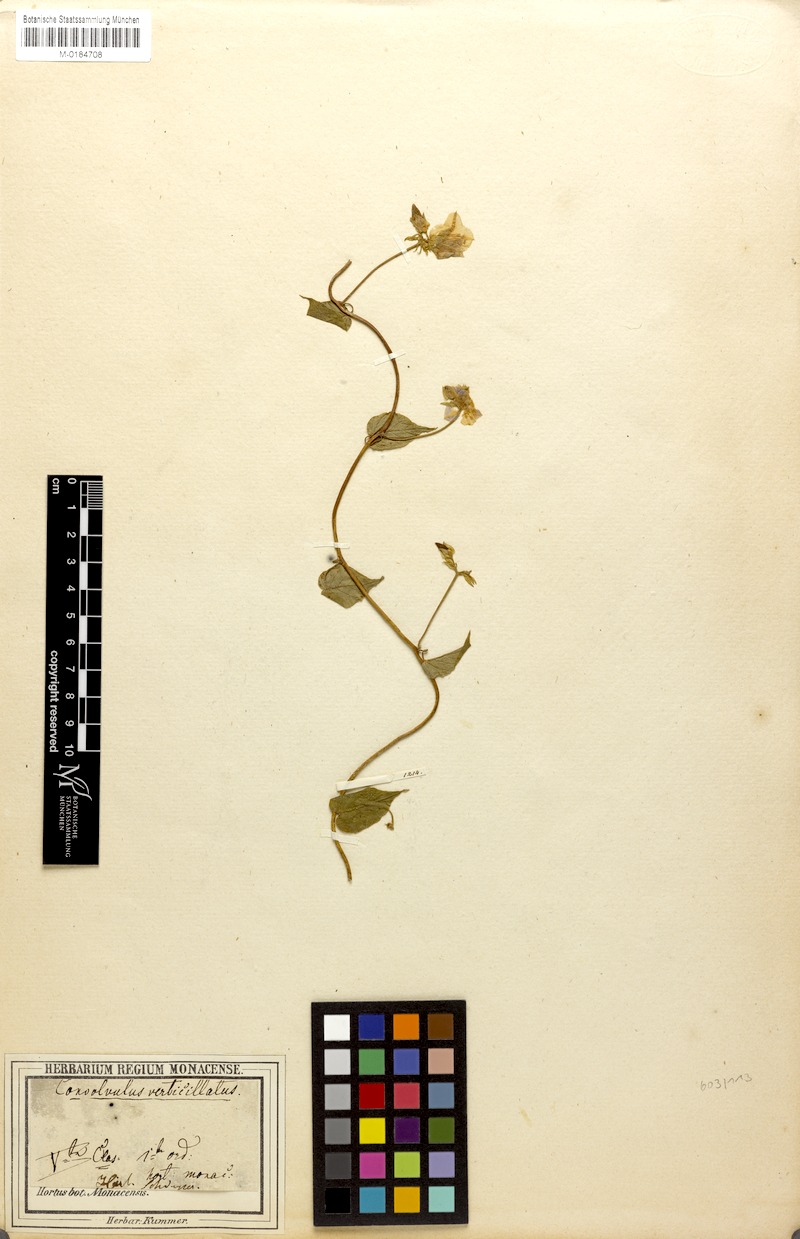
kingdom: Plantae
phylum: Tracheophyta
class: Magnoliopsida
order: Solanales
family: Convolvulaceae
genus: Jacquemontia
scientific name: Jacquemontia pentanthos
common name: Skyblue clustervine
